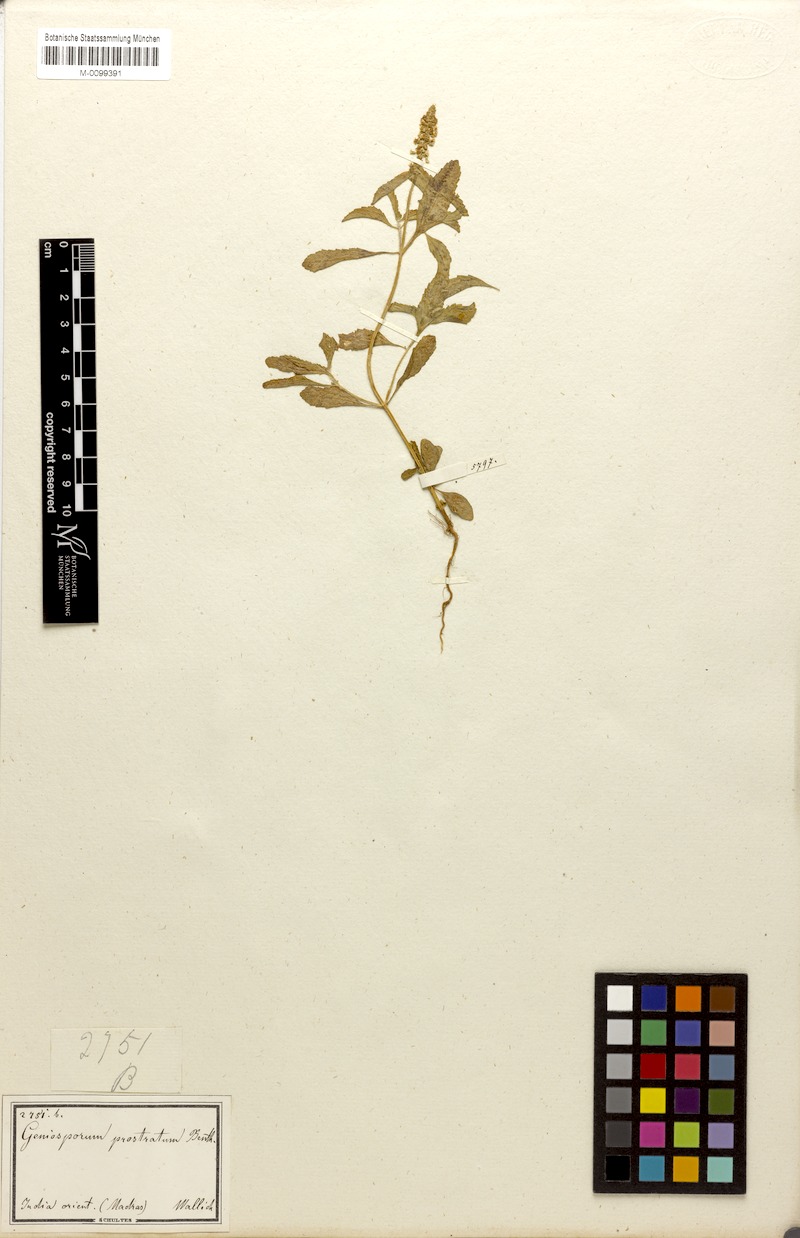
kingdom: Plantae
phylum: Tracheophyta
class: Magnoliopsida
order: Lamiales
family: Lamiaceae
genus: Platostoma
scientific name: Platostoma menthoides
